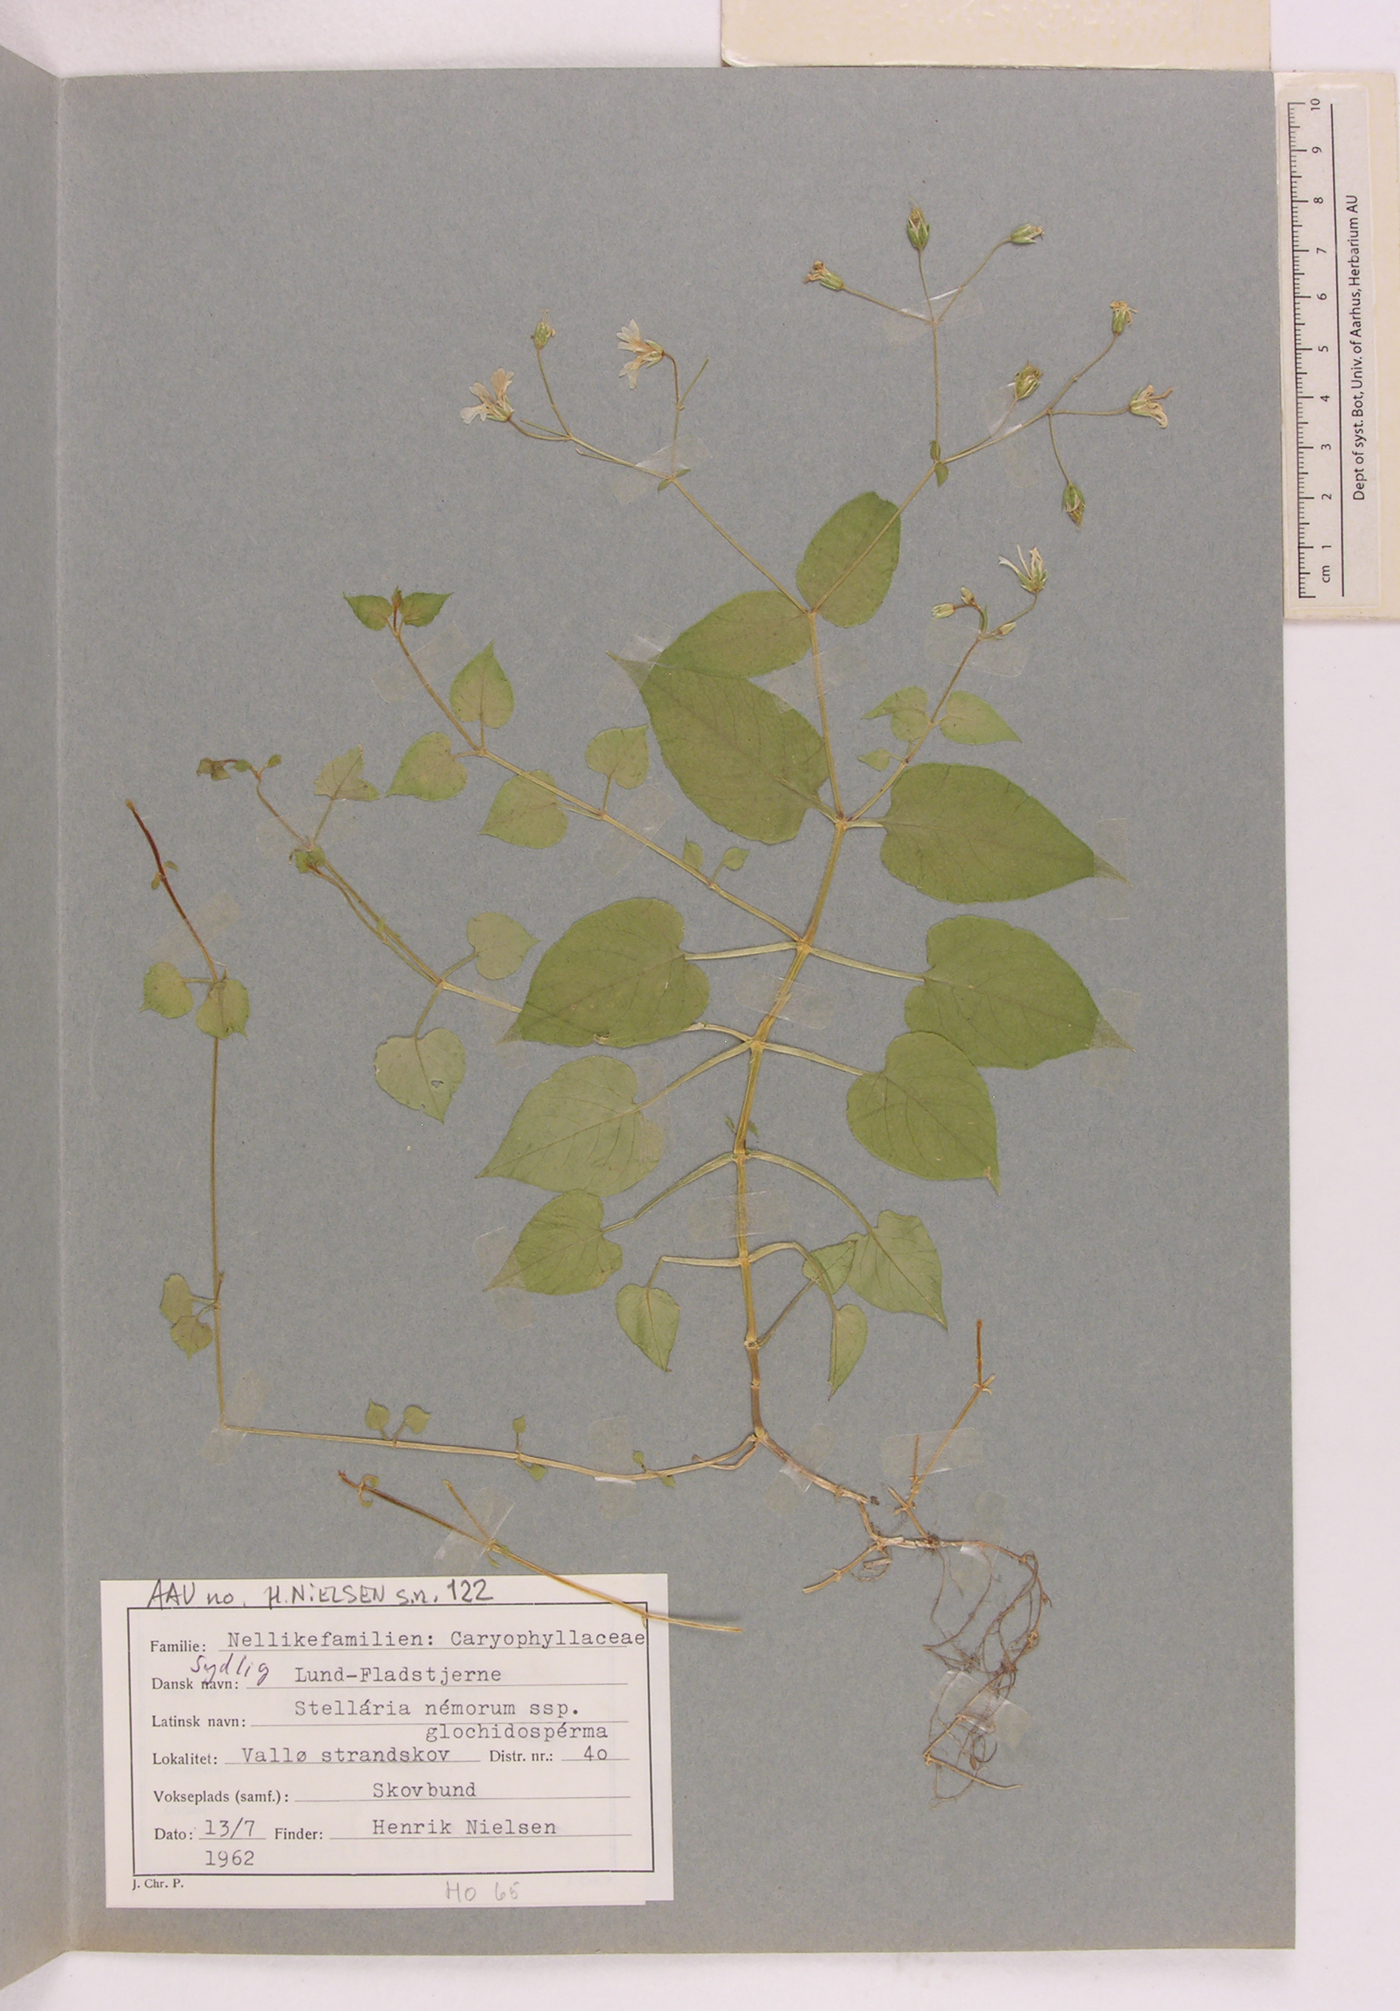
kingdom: Plantae
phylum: Tracheophyta
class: Magnoliopsida
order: Caryophyllales
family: Caryophyllaceae
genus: Stellaria
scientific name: Stellaria glochidisperma
